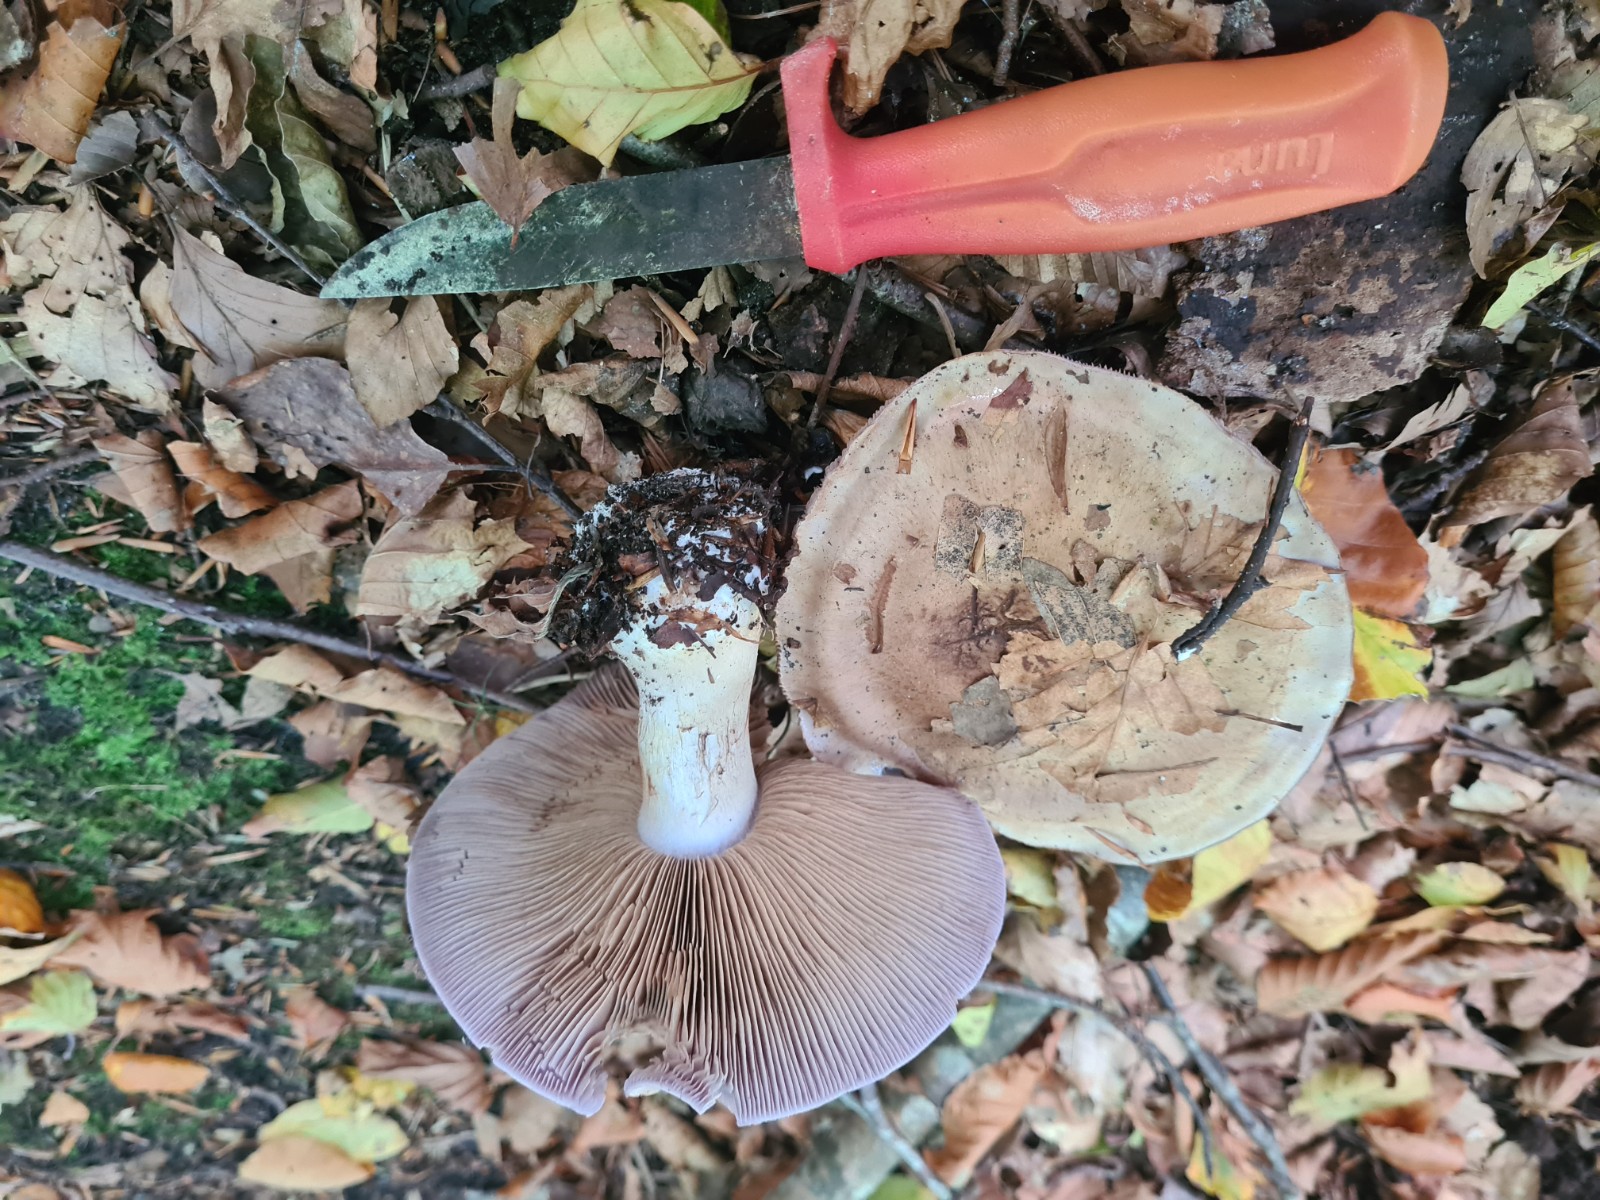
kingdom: Fungi
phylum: Basidiomycota
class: Agaricomycetes
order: Agaricales
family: Cortinariaceae
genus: Cortinarius
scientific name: Cortinarius largus
